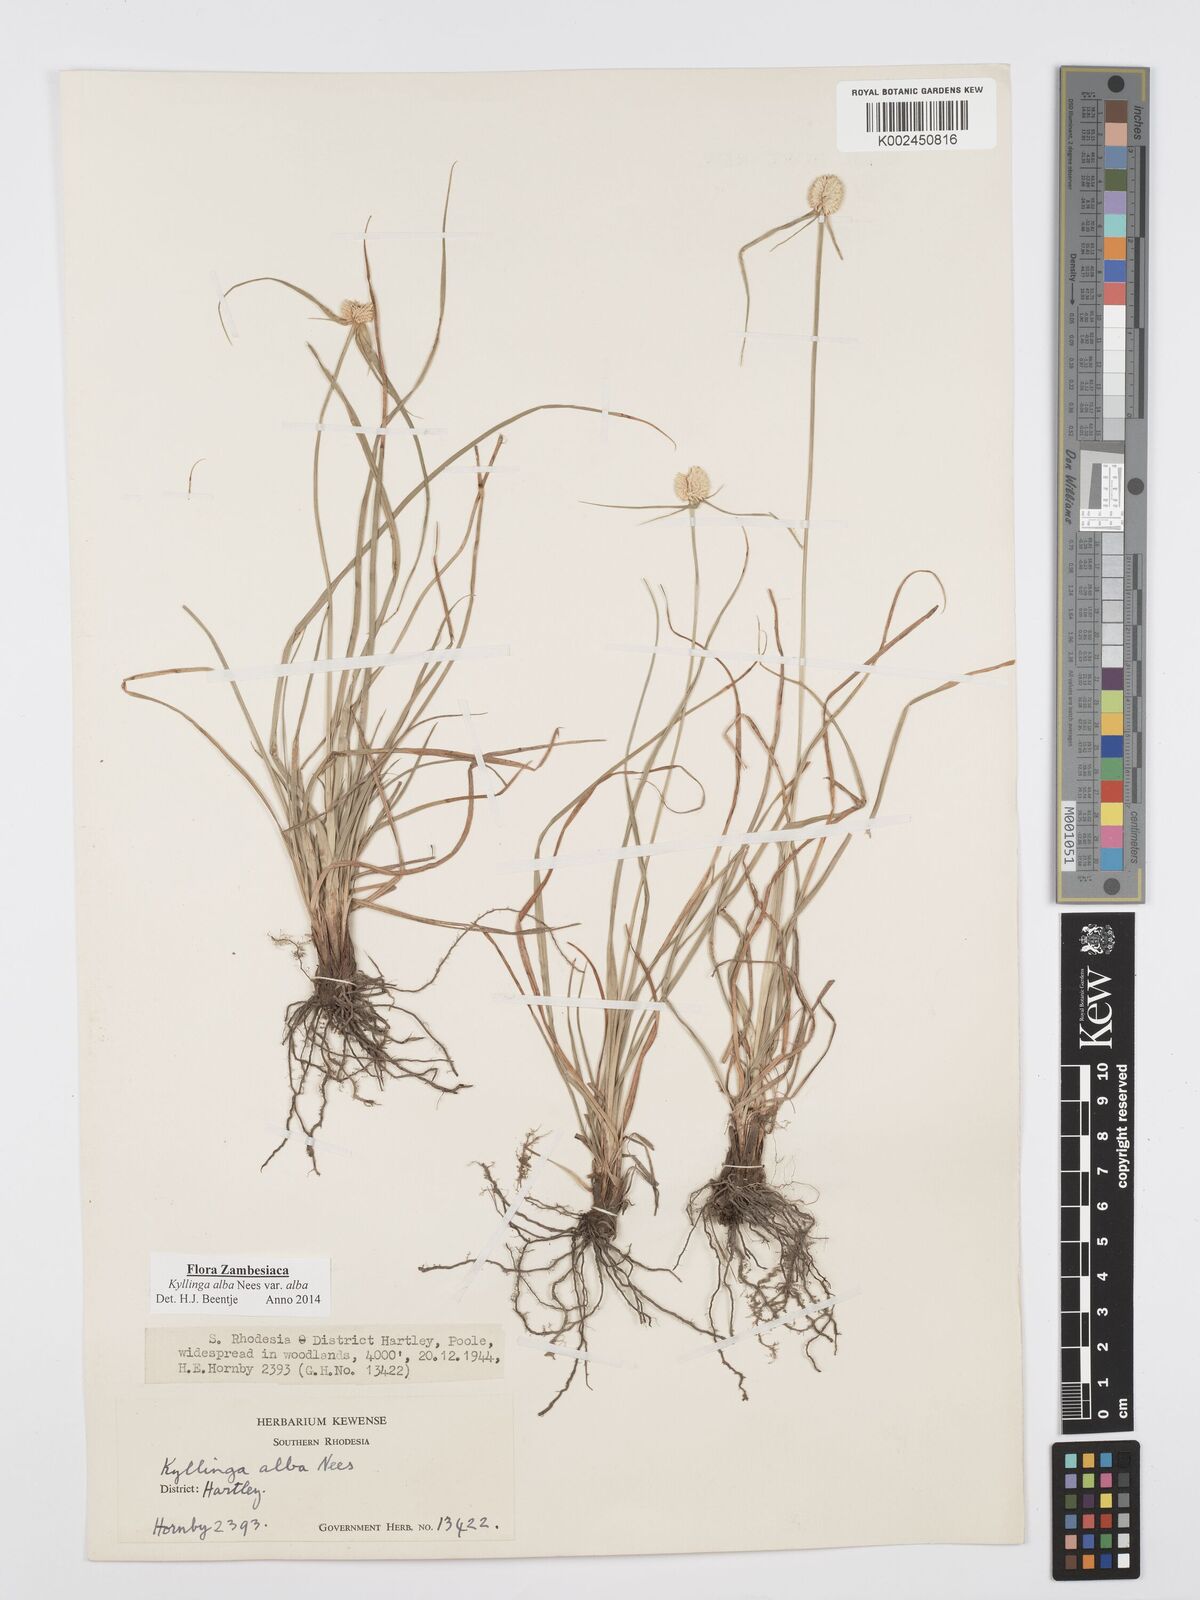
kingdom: Plantae
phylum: Tracheophyta
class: Liliopsida
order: Poales
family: Cyperaceae
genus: Cyperus
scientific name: Cyperus
